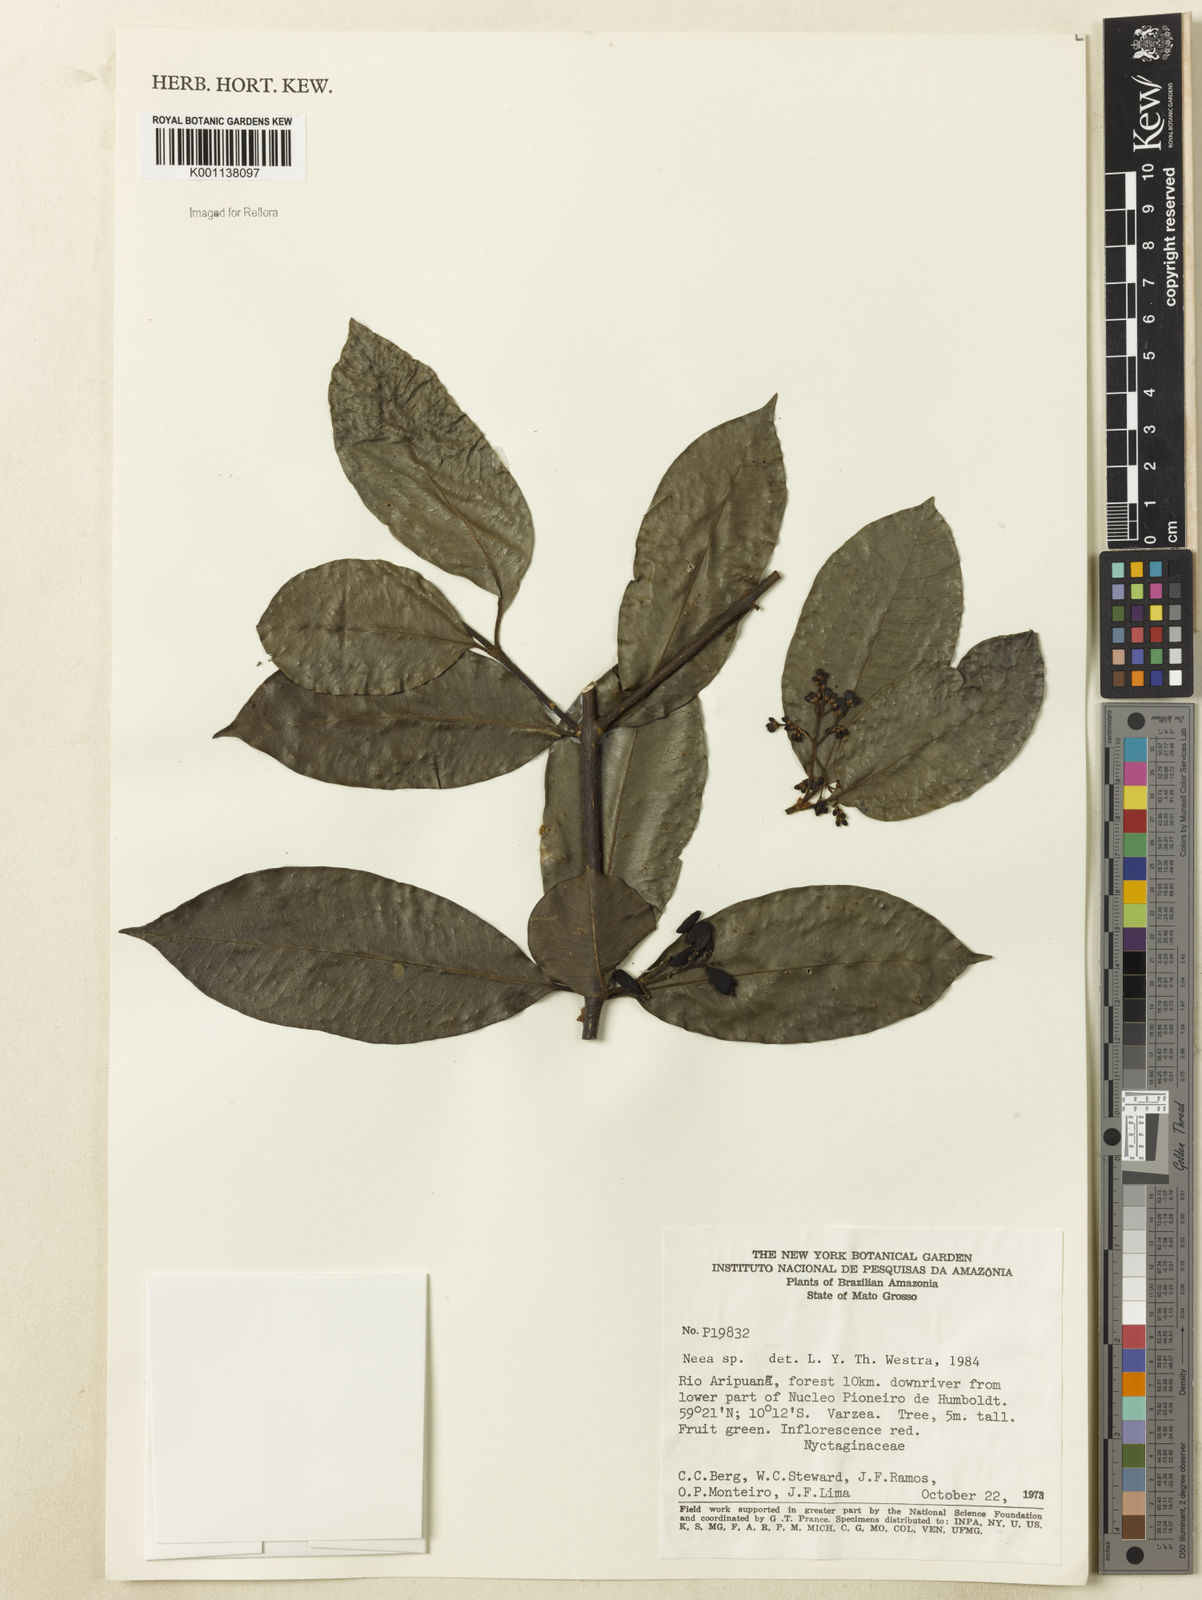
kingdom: Plantae
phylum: Tracheophyta
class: Magnoliopsida
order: Caryophyllales
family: Nyctaginaceae
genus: Neea
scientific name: Neea
